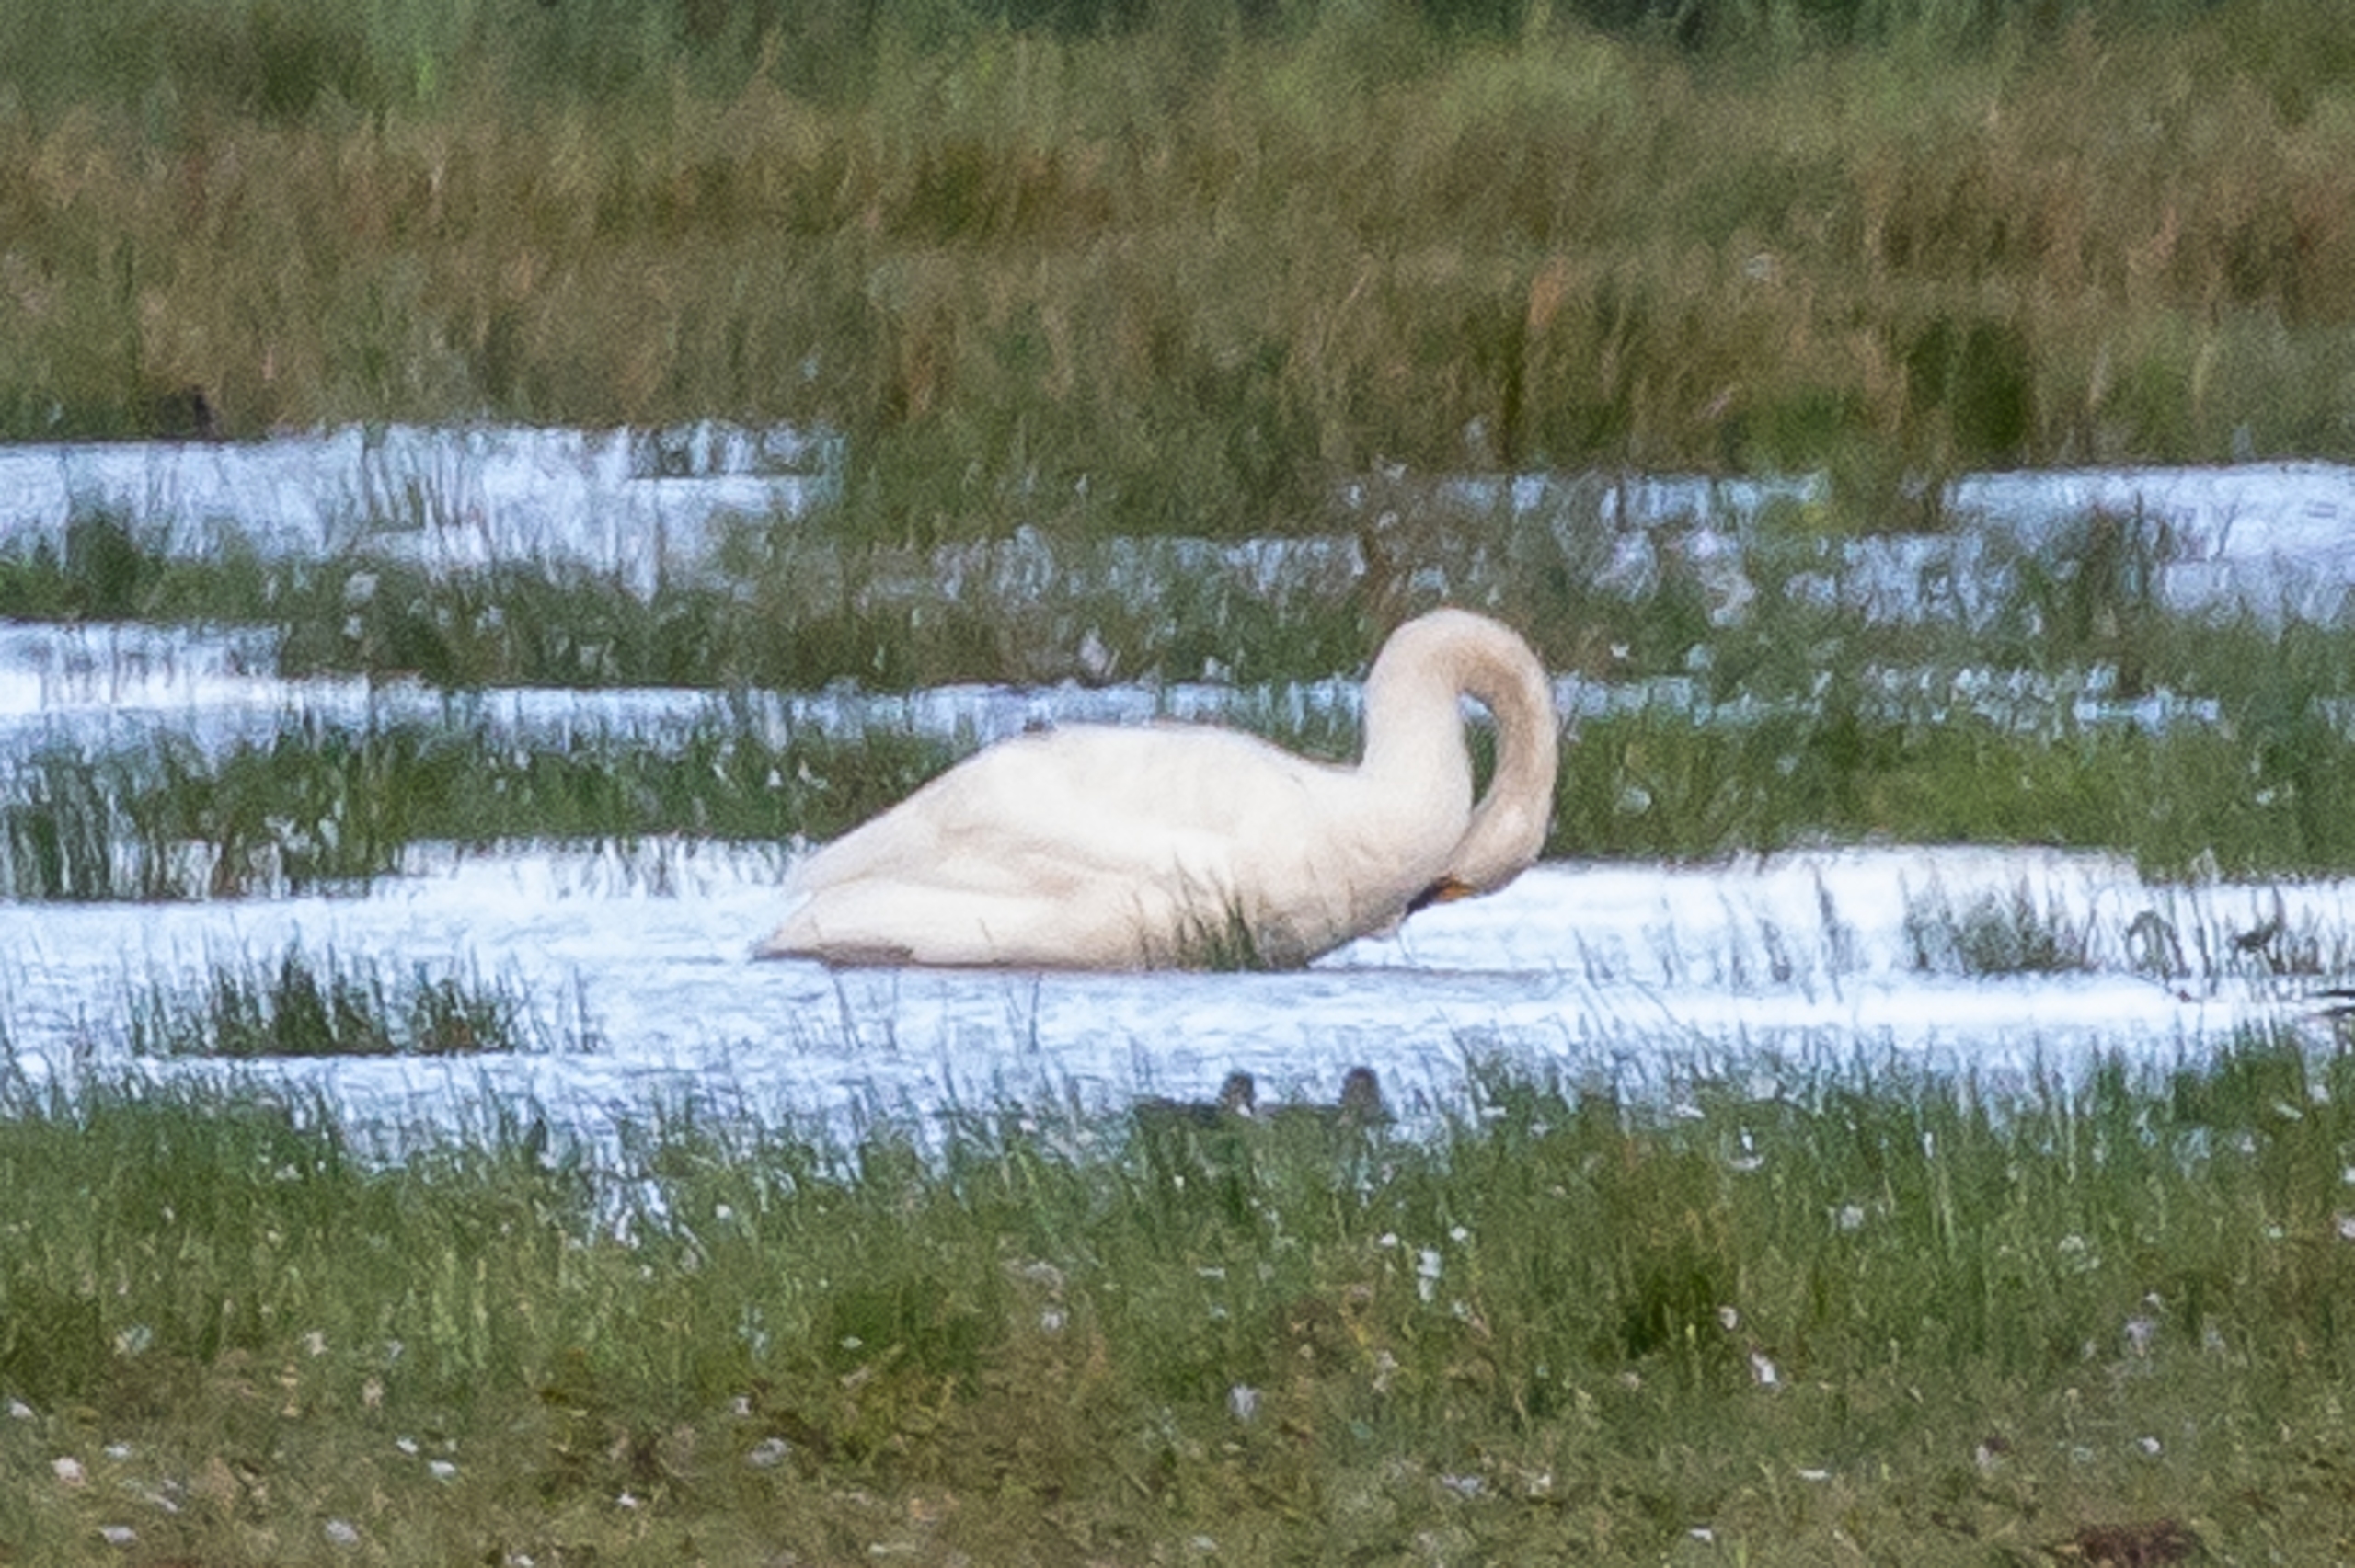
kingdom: Animalia
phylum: Chordata
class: Aves
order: Anseriformes
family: Anatidae
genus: Cygnus
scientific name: Cygnus cygnus
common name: Sangsvane
